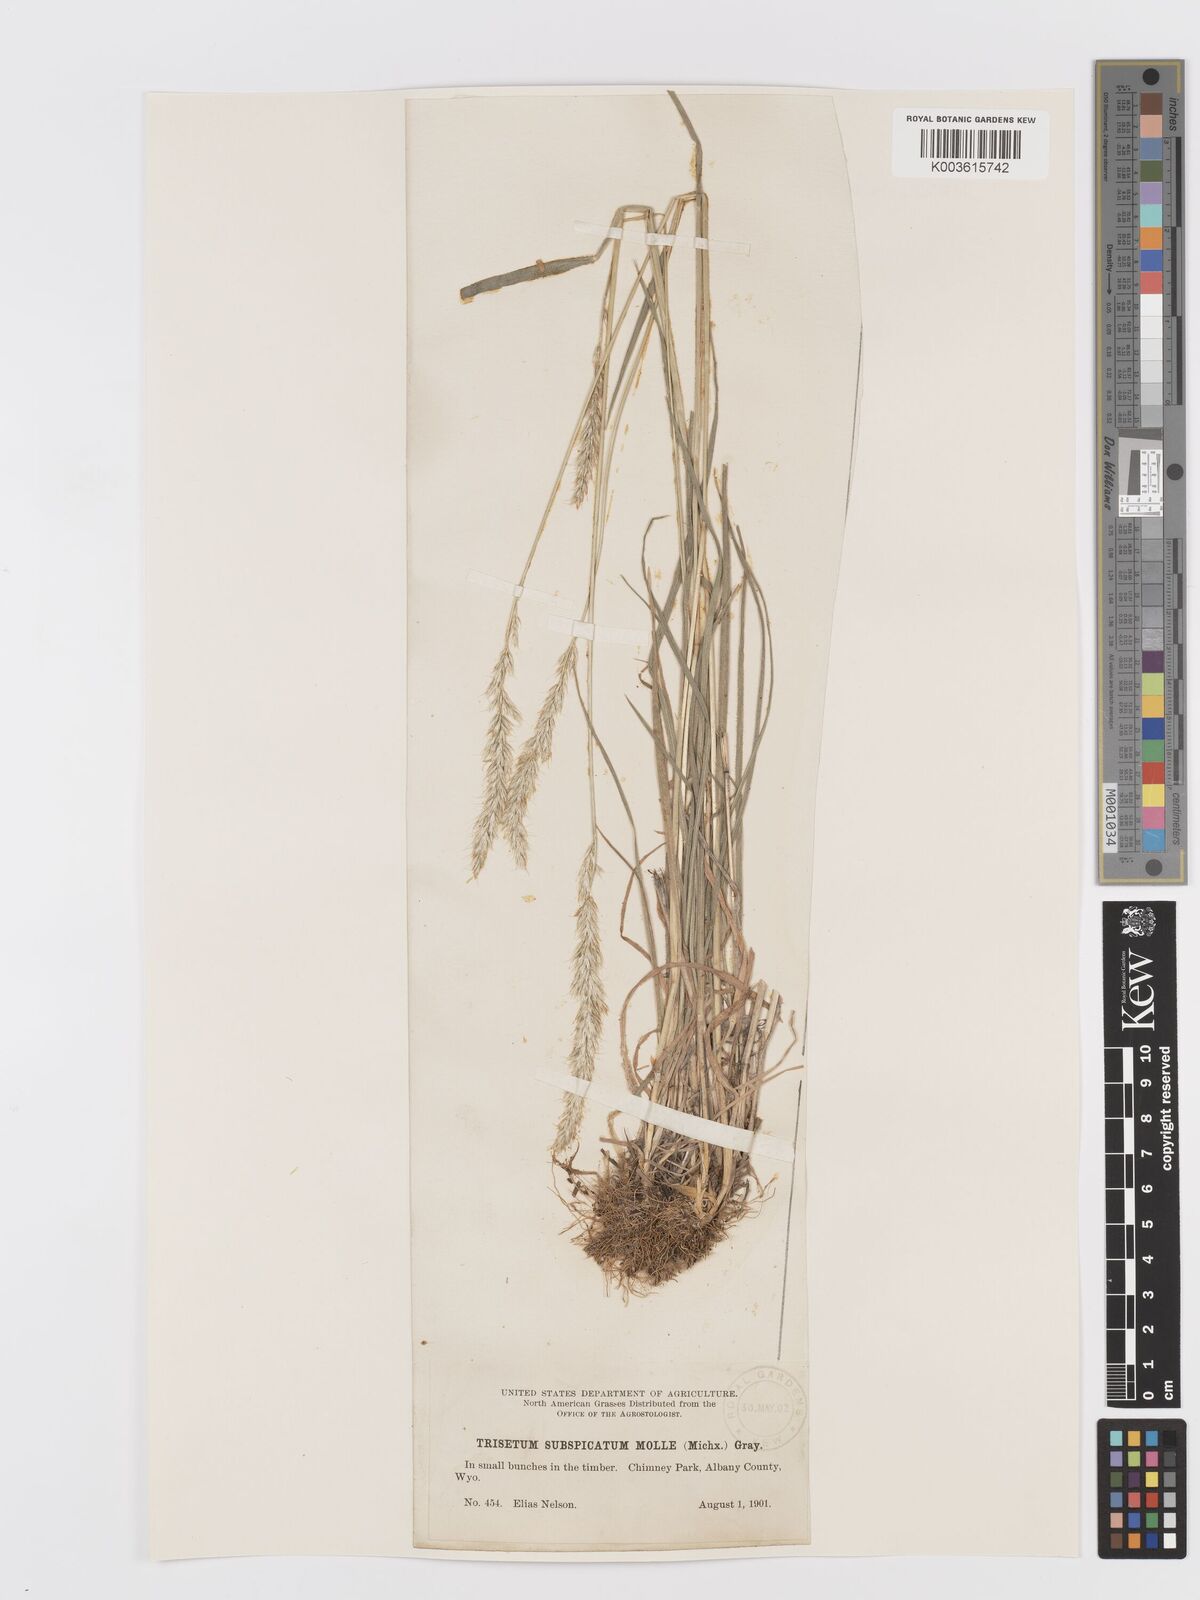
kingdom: Plantae
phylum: Tracheophyta
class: Liliopsida
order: Poales
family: Poaceae
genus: Koeleria
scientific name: Koeleria spicata
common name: Mountain trisetum
